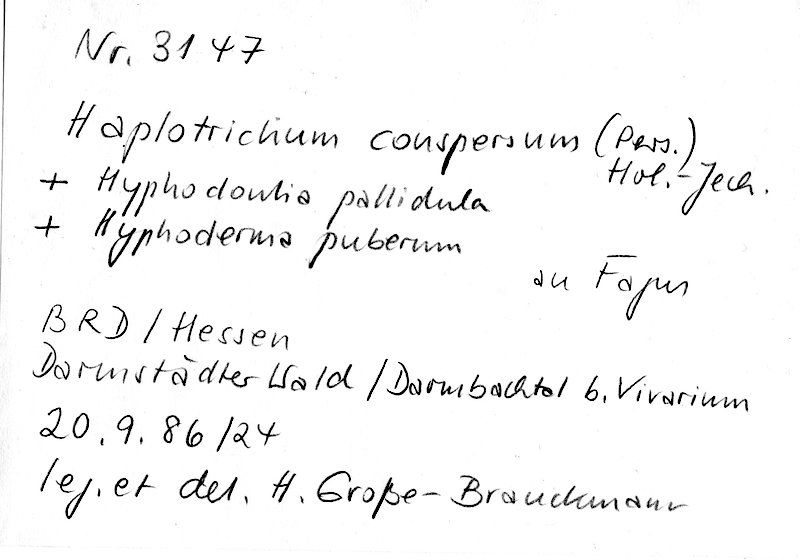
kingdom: Fungi
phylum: Basidiomycota
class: Agaricomycetes
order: Hymenochaetales
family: Rickenellaceae
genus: Peniophorella
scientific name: Peniophorella pubera
